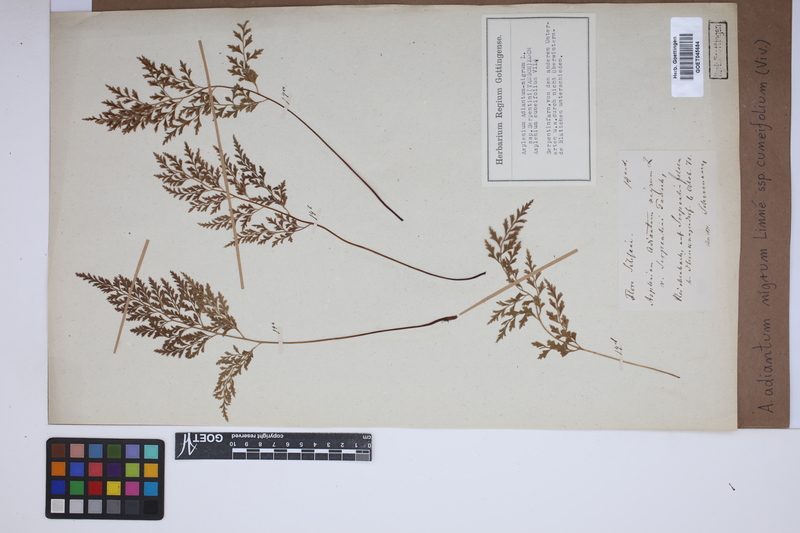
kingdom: Plantae
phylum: Tracheophyta
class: Polypodiopsida
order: Polypodiales
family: Aspleniaceae
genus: Asplenium
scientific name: Asplenium cuneifolium
